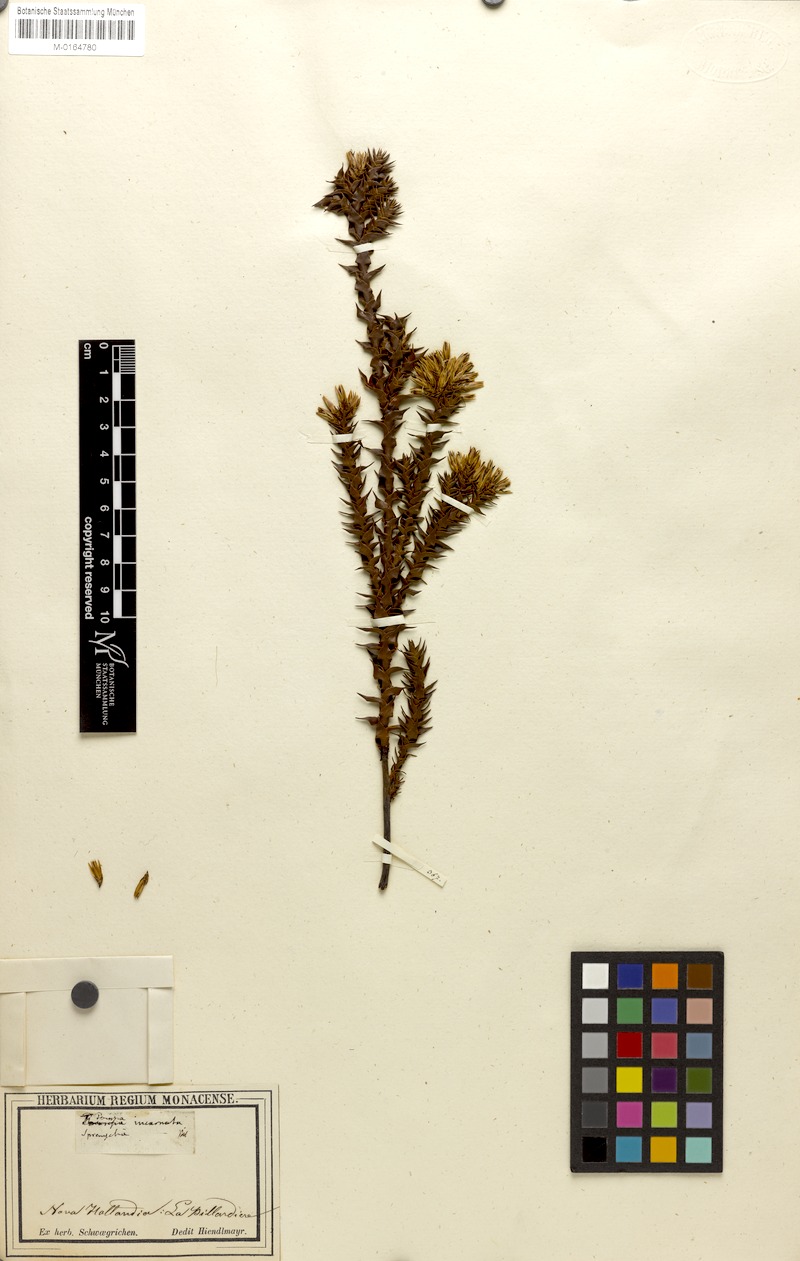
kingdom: Plantae
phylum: Tracheophyta
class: Magnoliopsida
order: Ericales
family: Ericaceae
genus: Sprengelia
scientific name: Sprengelia incarnata
